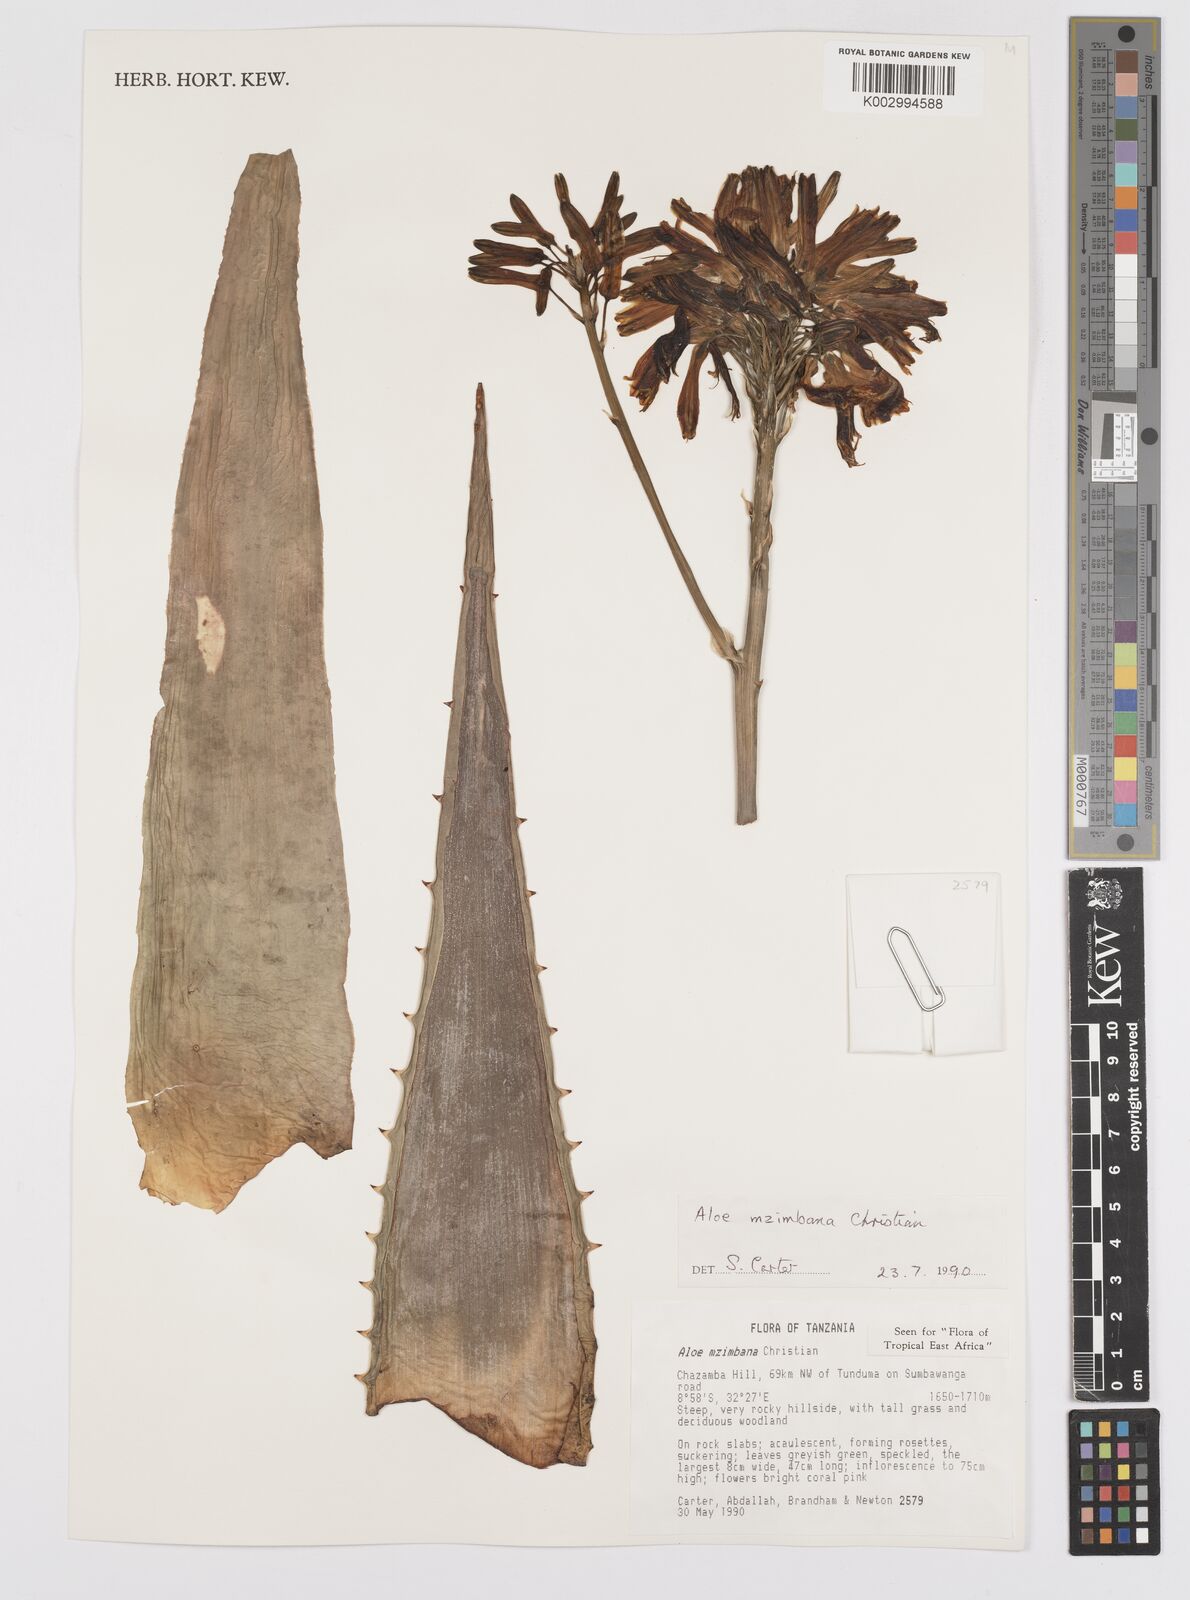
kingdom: Plantae
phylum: Tracheophyta
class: Liliopsida
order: Asparagales
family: Asphodelaceae
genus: Aloe
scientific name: Aloe mzimbana
